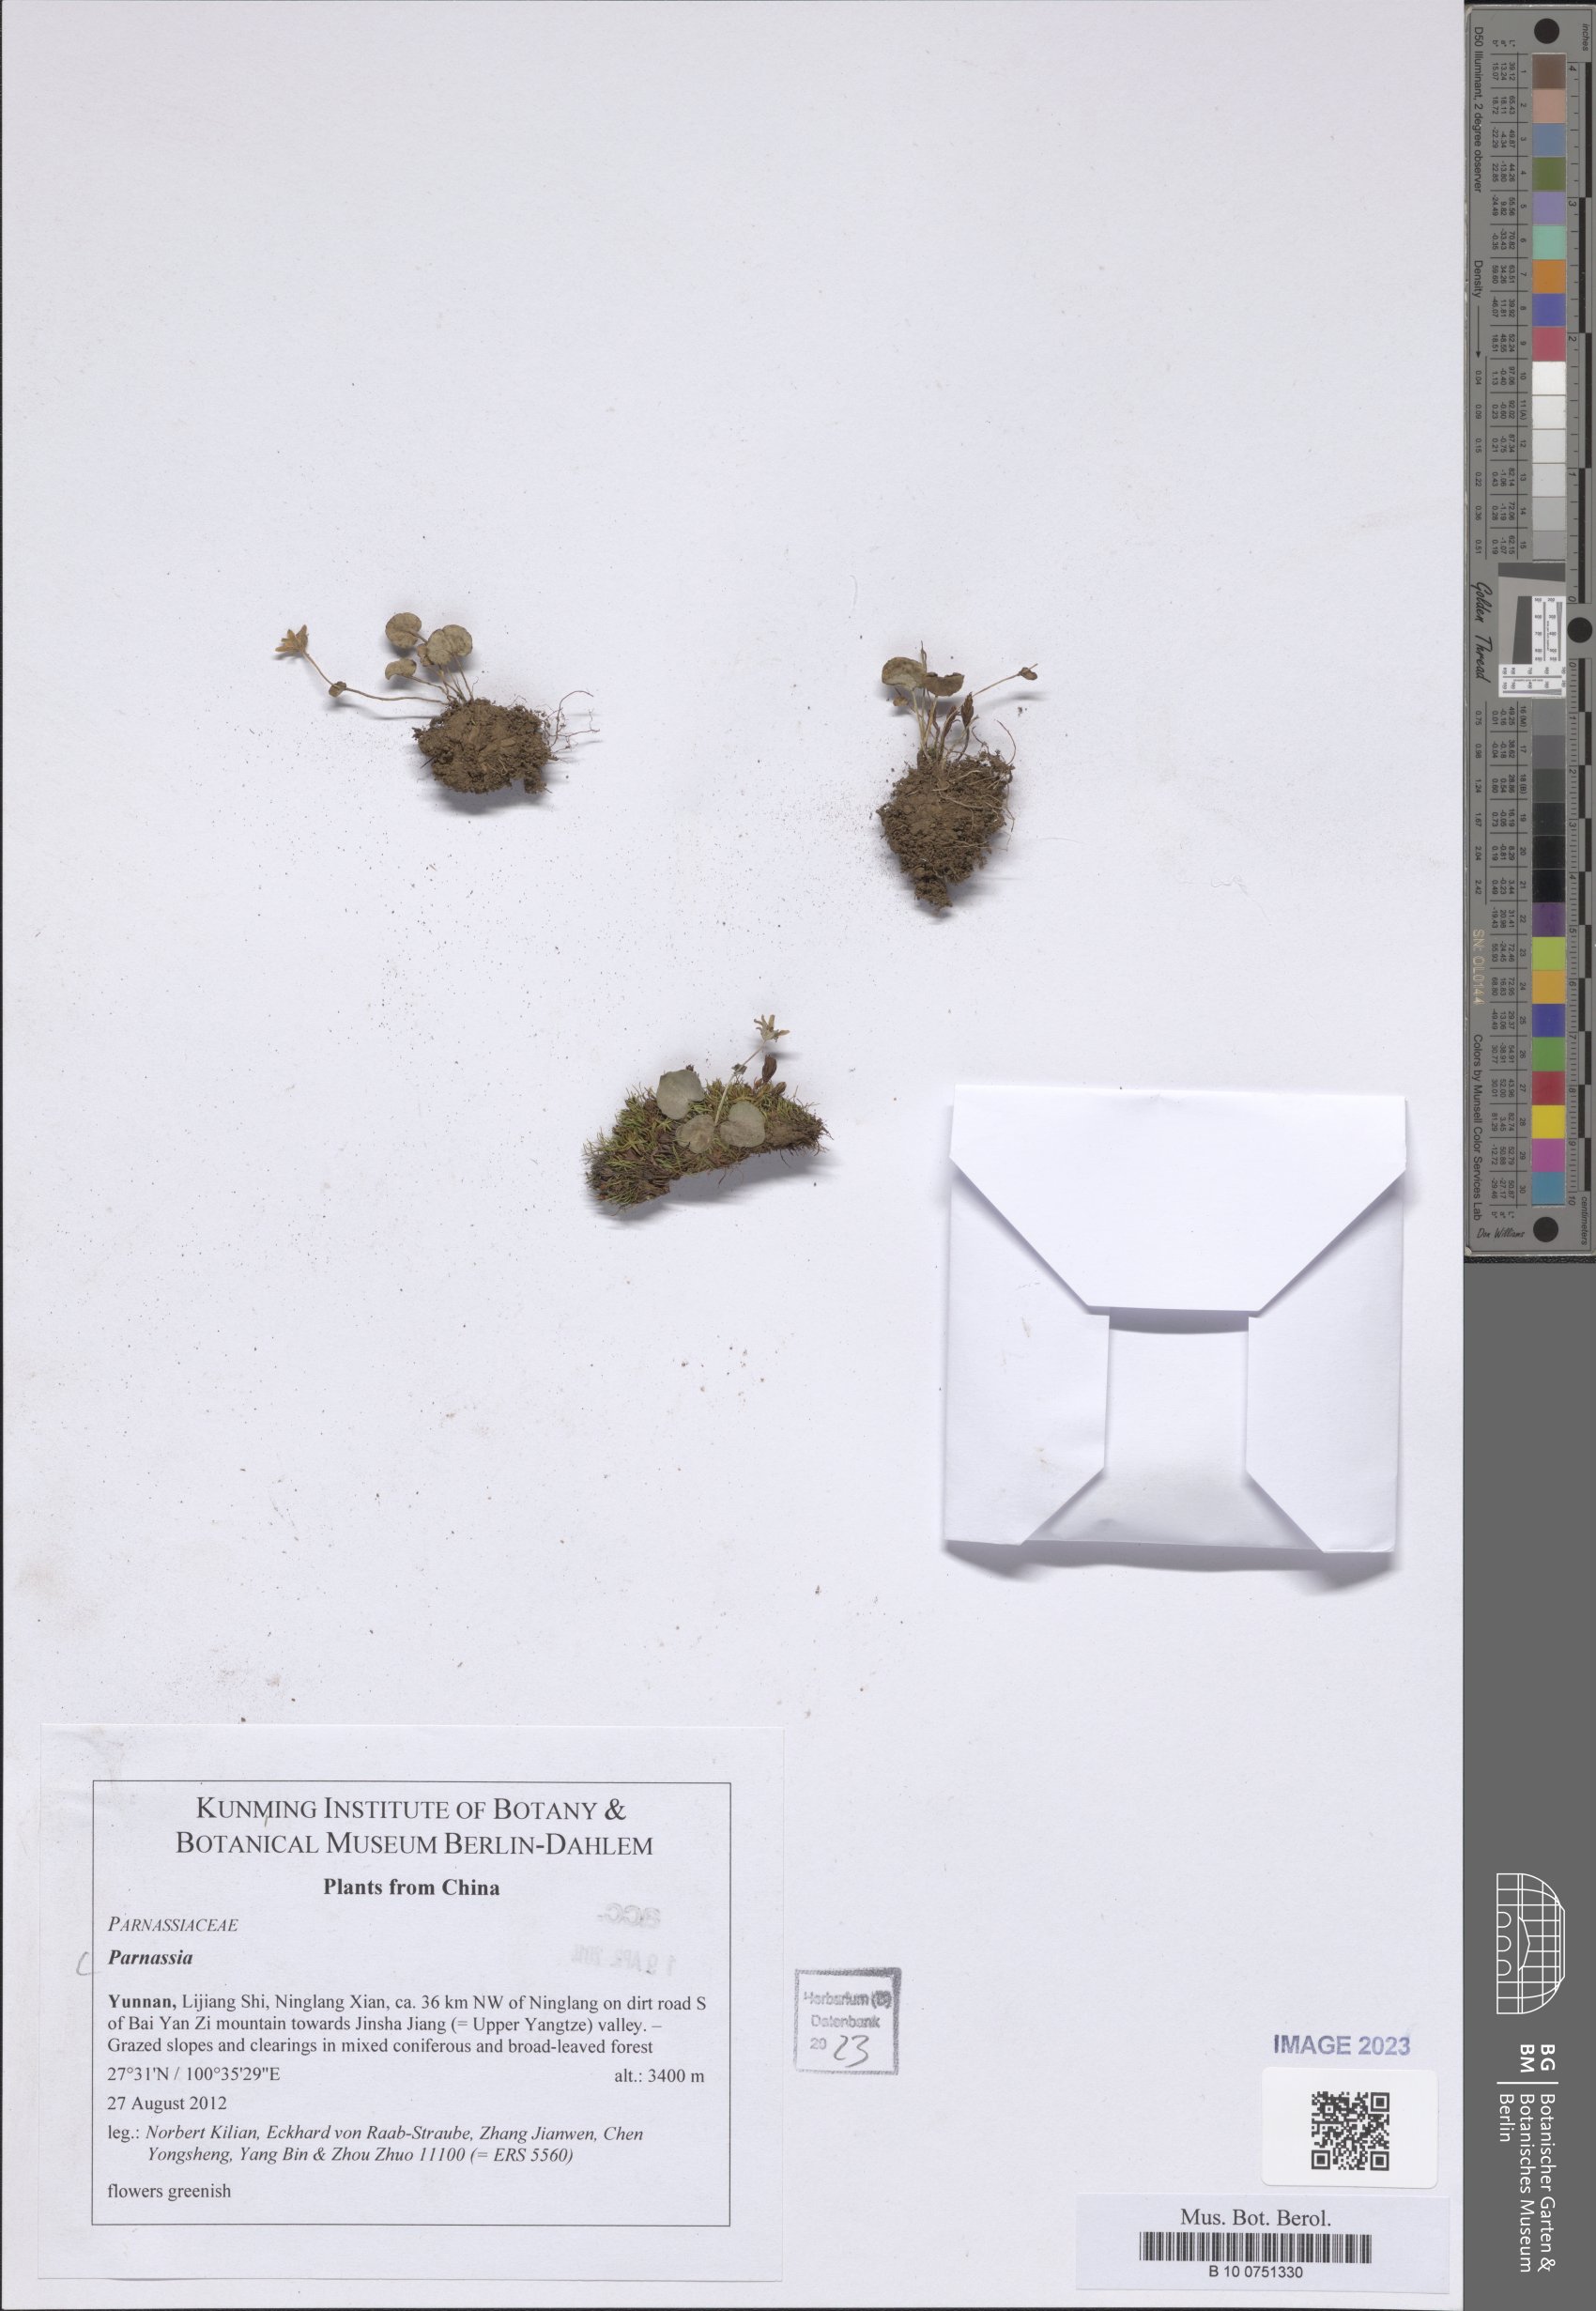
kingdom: Plantae
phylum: Tracheophyta
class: Magnoliopsida
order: Celastrales
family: Parnassiaceae
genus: Parnassia
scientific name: Parnassia
